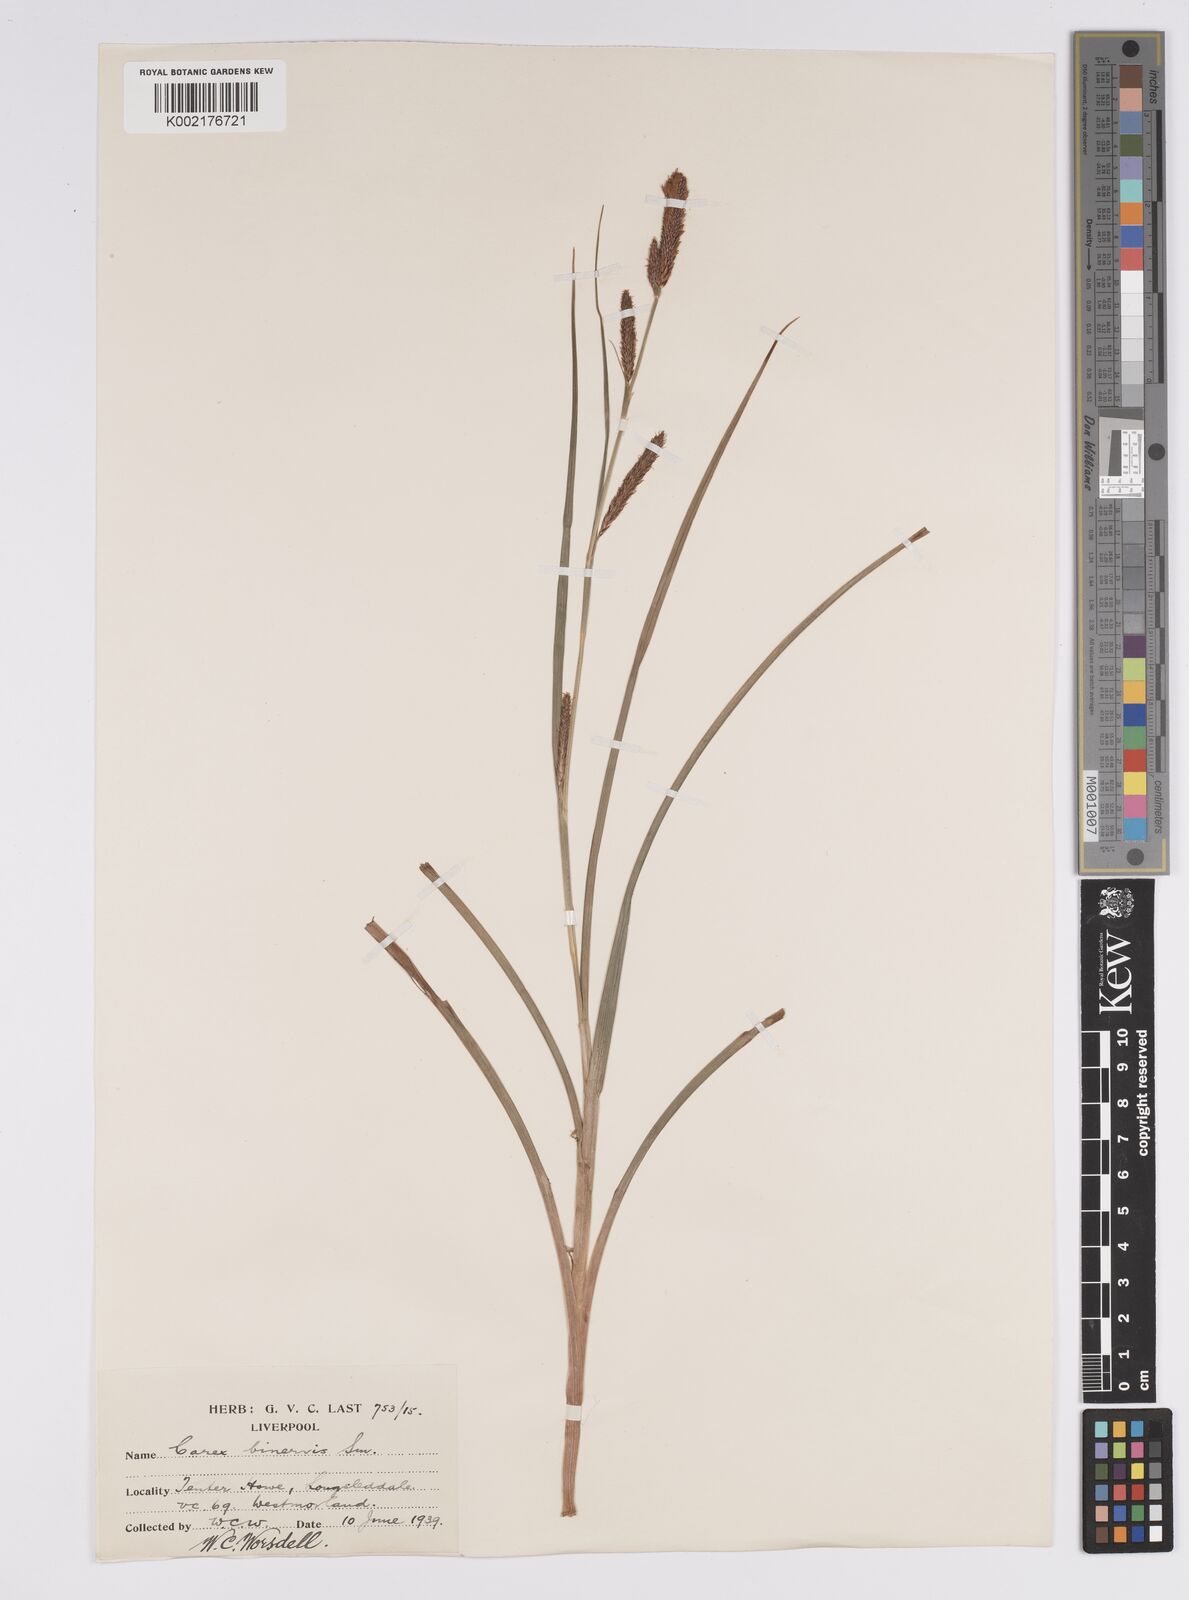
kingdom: Plantae
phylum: Tracheophyta
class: Liliopsida
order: Poales
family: Cyperaceae
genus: Carex
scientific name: Carex binervis
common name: Green-ribbed sedge
